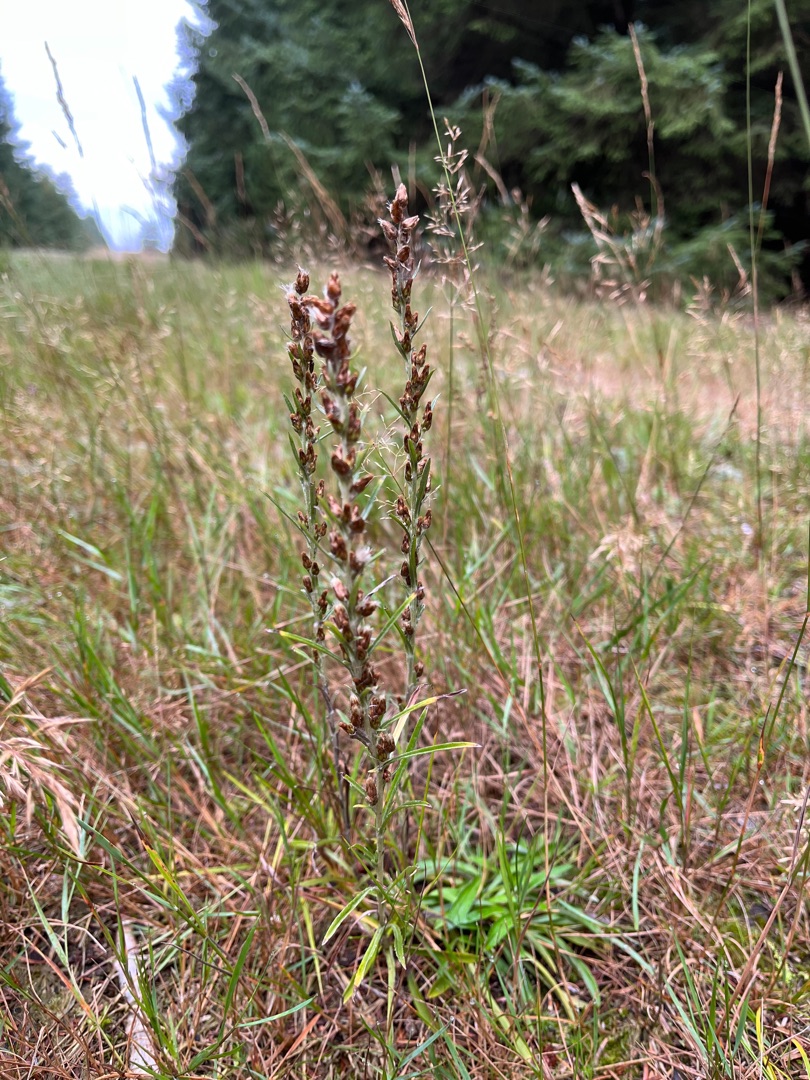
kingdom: Plantae
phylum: Tracheophyta
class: Magnoliopsida
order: Asterales
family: Asteraceae
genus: Omalotheca
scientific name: Omalotheca sylvatica
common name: Rank evighedsblomst
